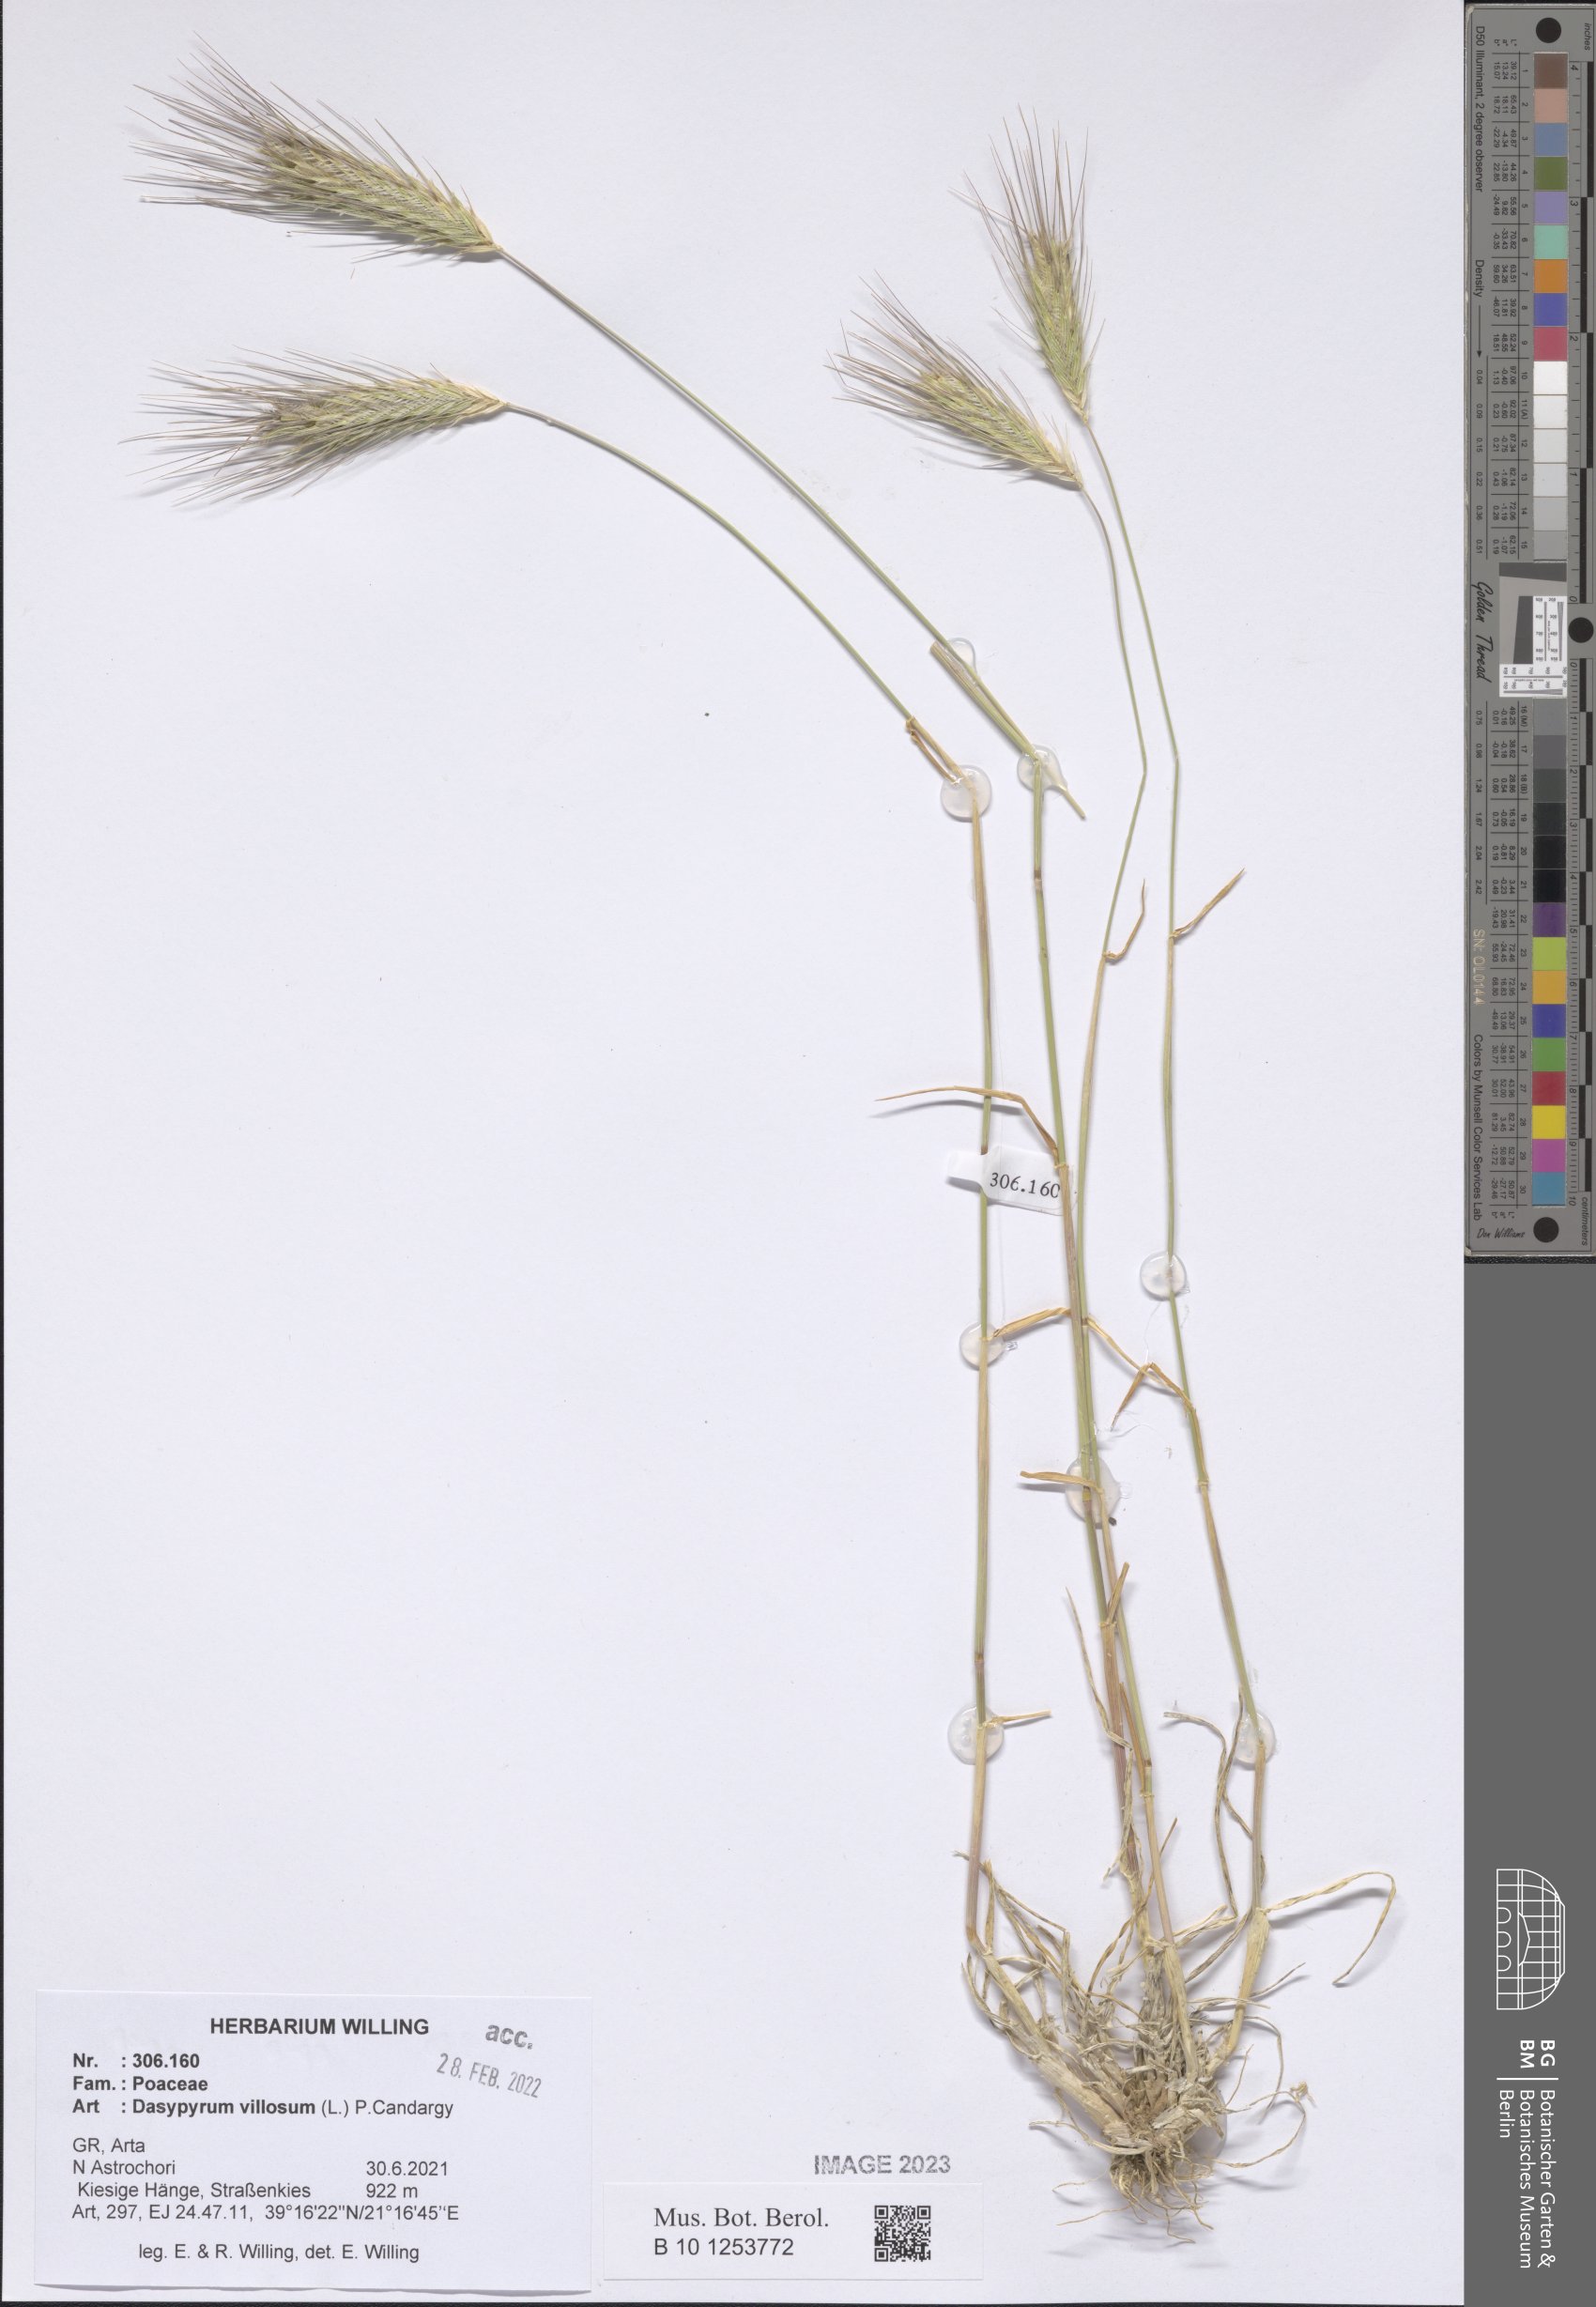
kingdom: Plantae
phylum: Tracheophyta
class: Liliopsida
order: Poales
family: Poaceae
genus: Dasypyrum
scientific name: Dasypyrum villosum
